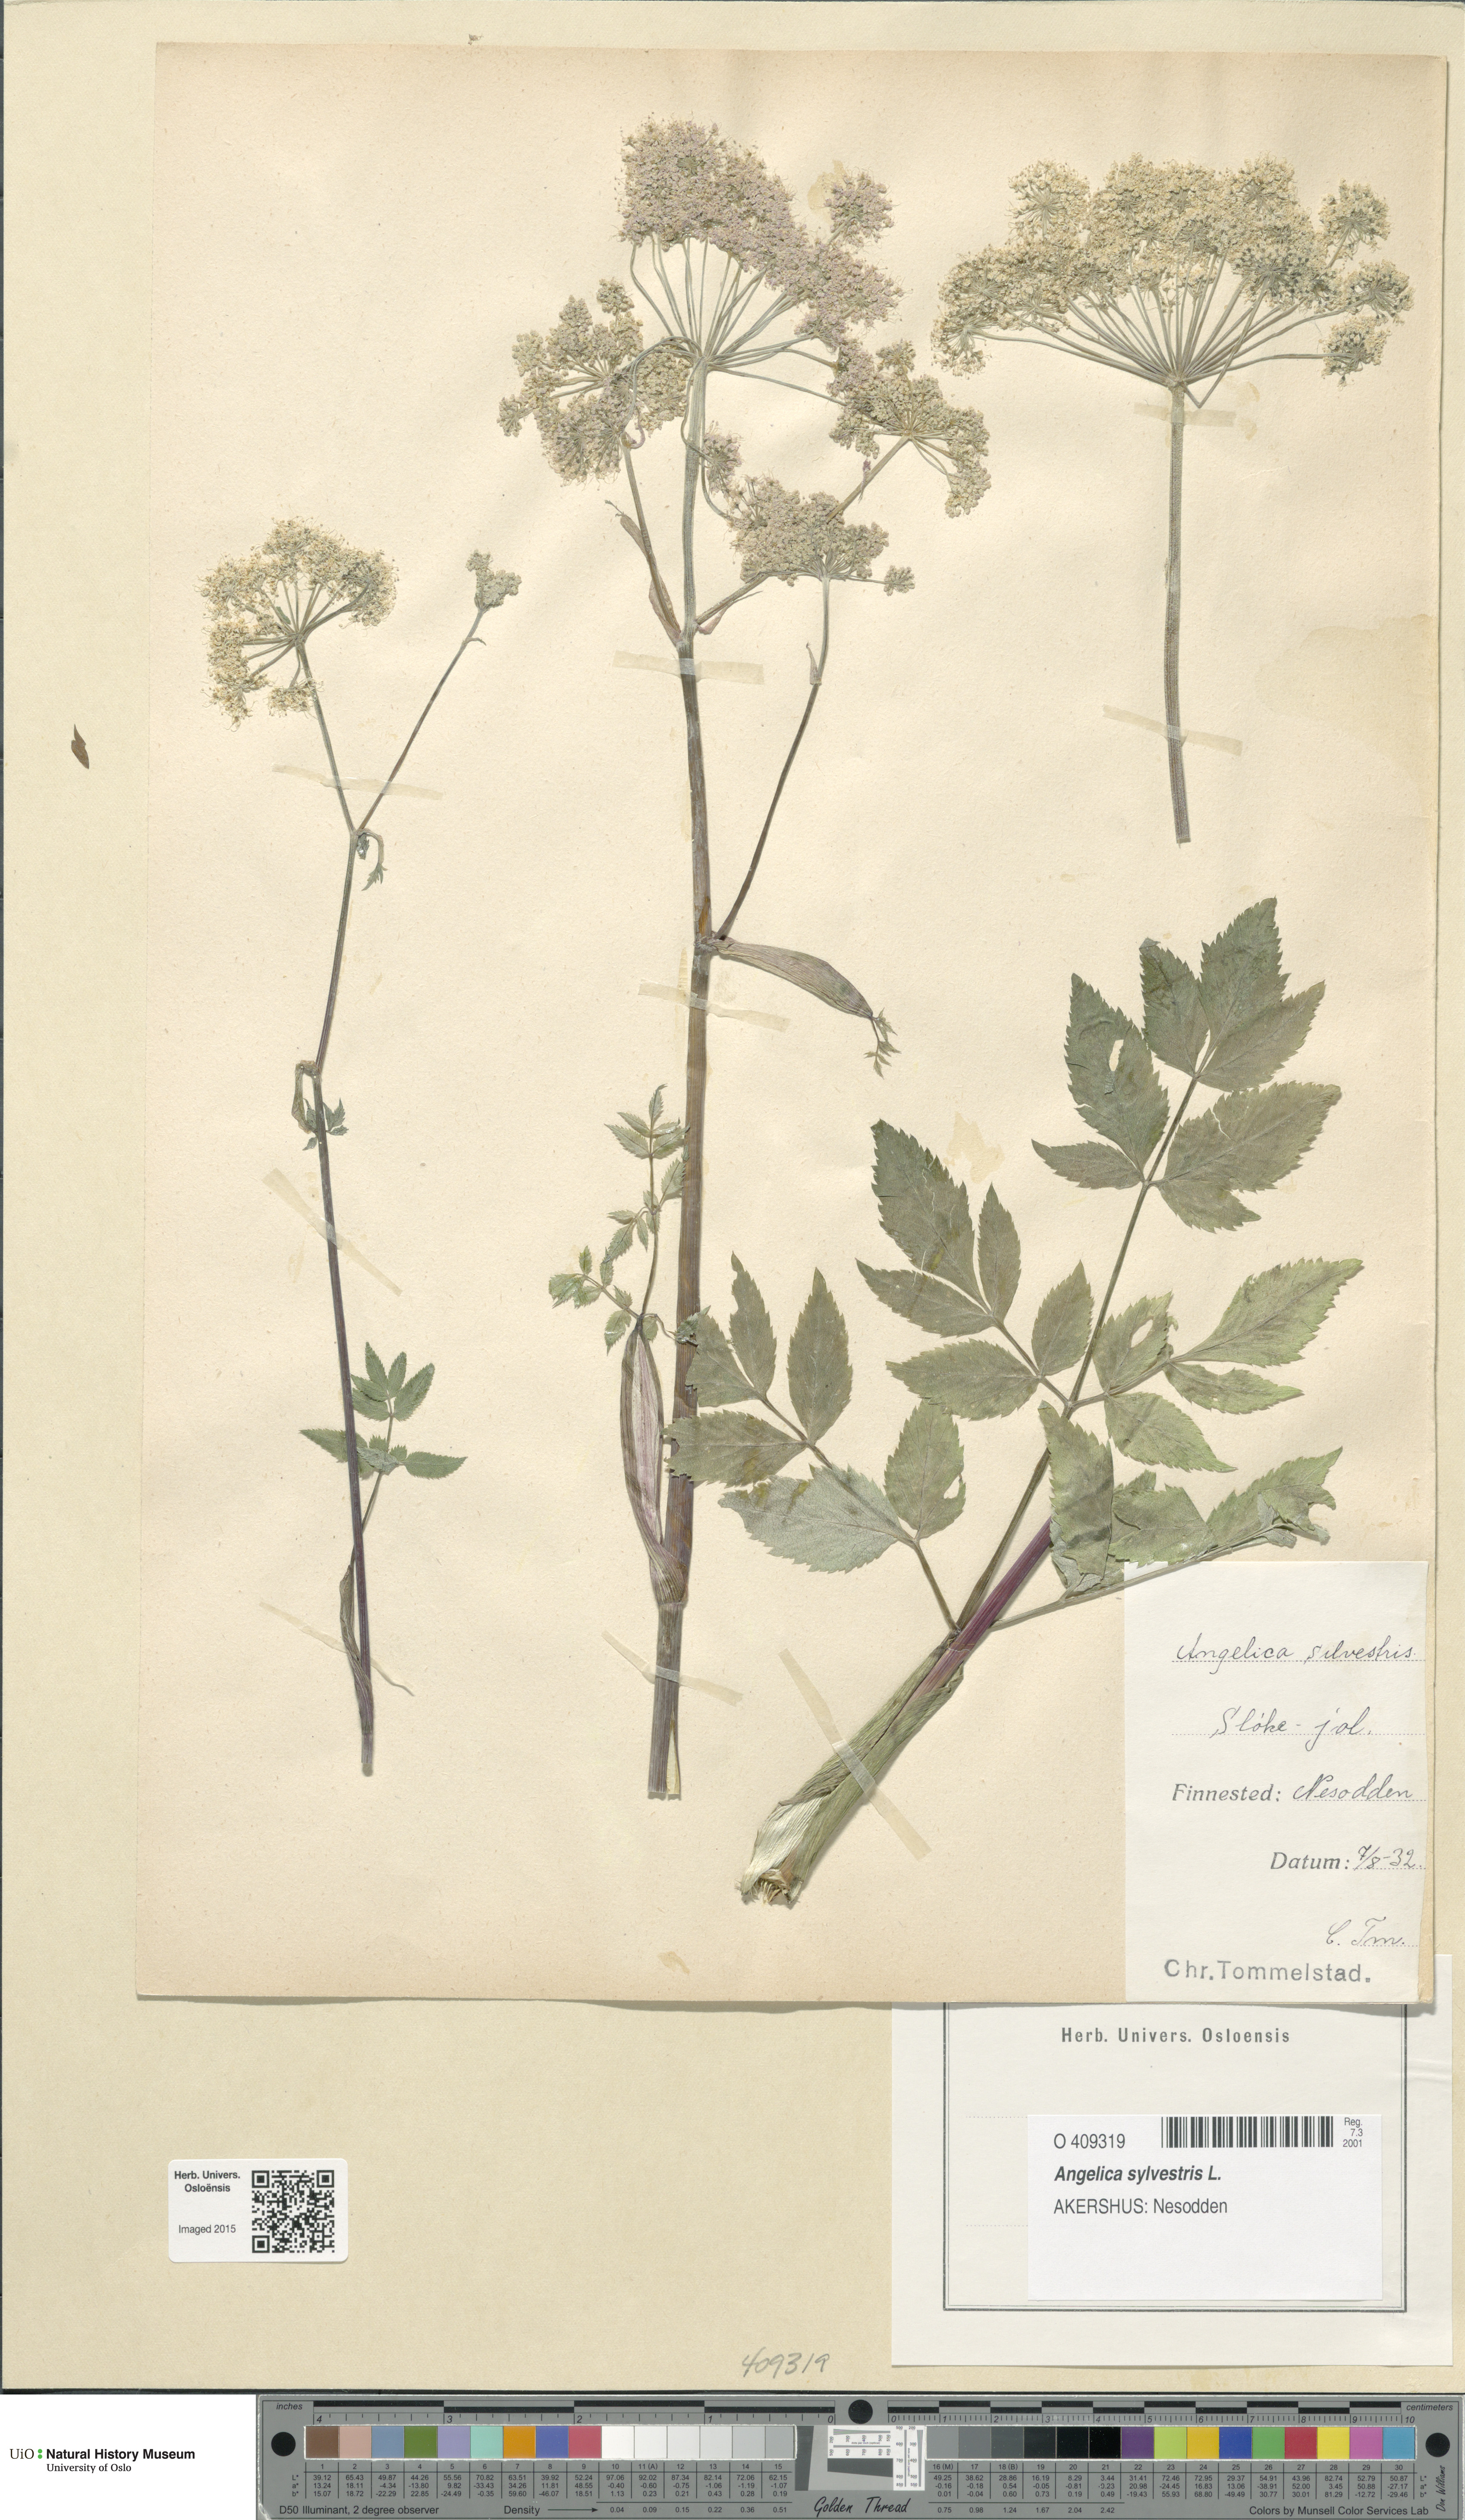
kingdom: Plantae
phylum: Tracheophyta
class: Magnoliopsida
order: Apiales
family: Apiaceae
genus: Angelica
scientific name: Angelica sylvestris
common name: Wild angelica
